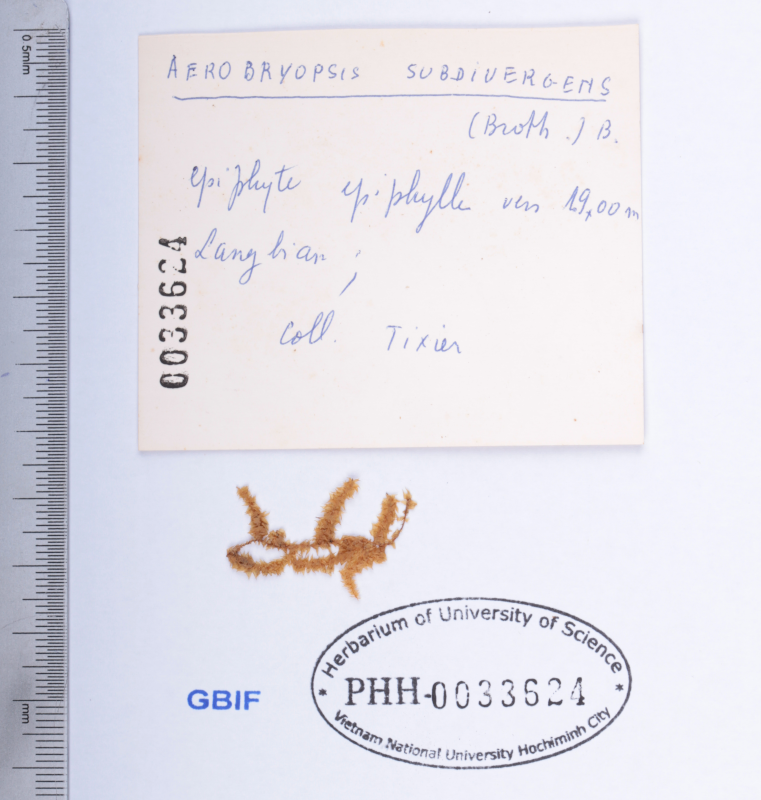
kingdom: Plantae
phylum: Bryophyta
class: Bryopsida
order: Hypnales
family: Meteoriaceae
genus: Aerobryopsis
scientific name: Aerobryopsis subdivergens
